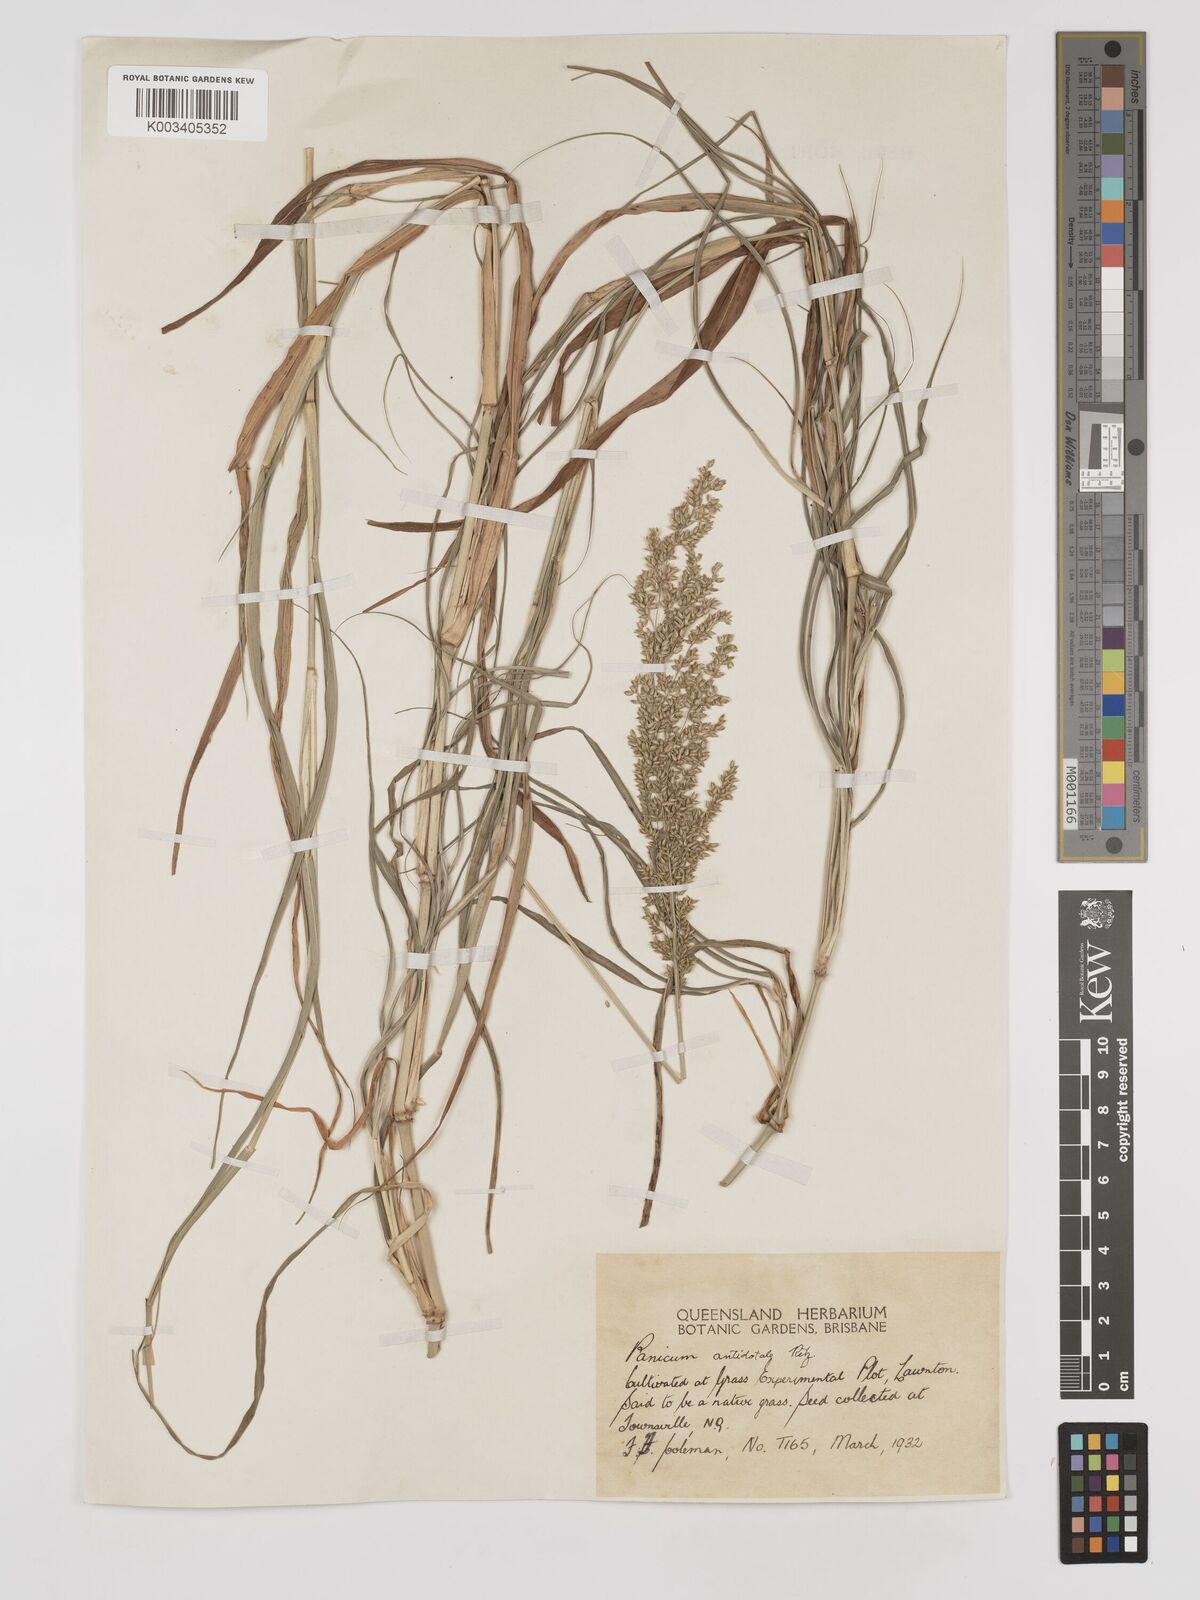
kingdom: Plantae
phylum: Tracheophyta
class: Liliopsida
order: Poales
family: Poaceae
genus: Panicum
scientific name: Panicum antidotale
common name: Blue panicum
